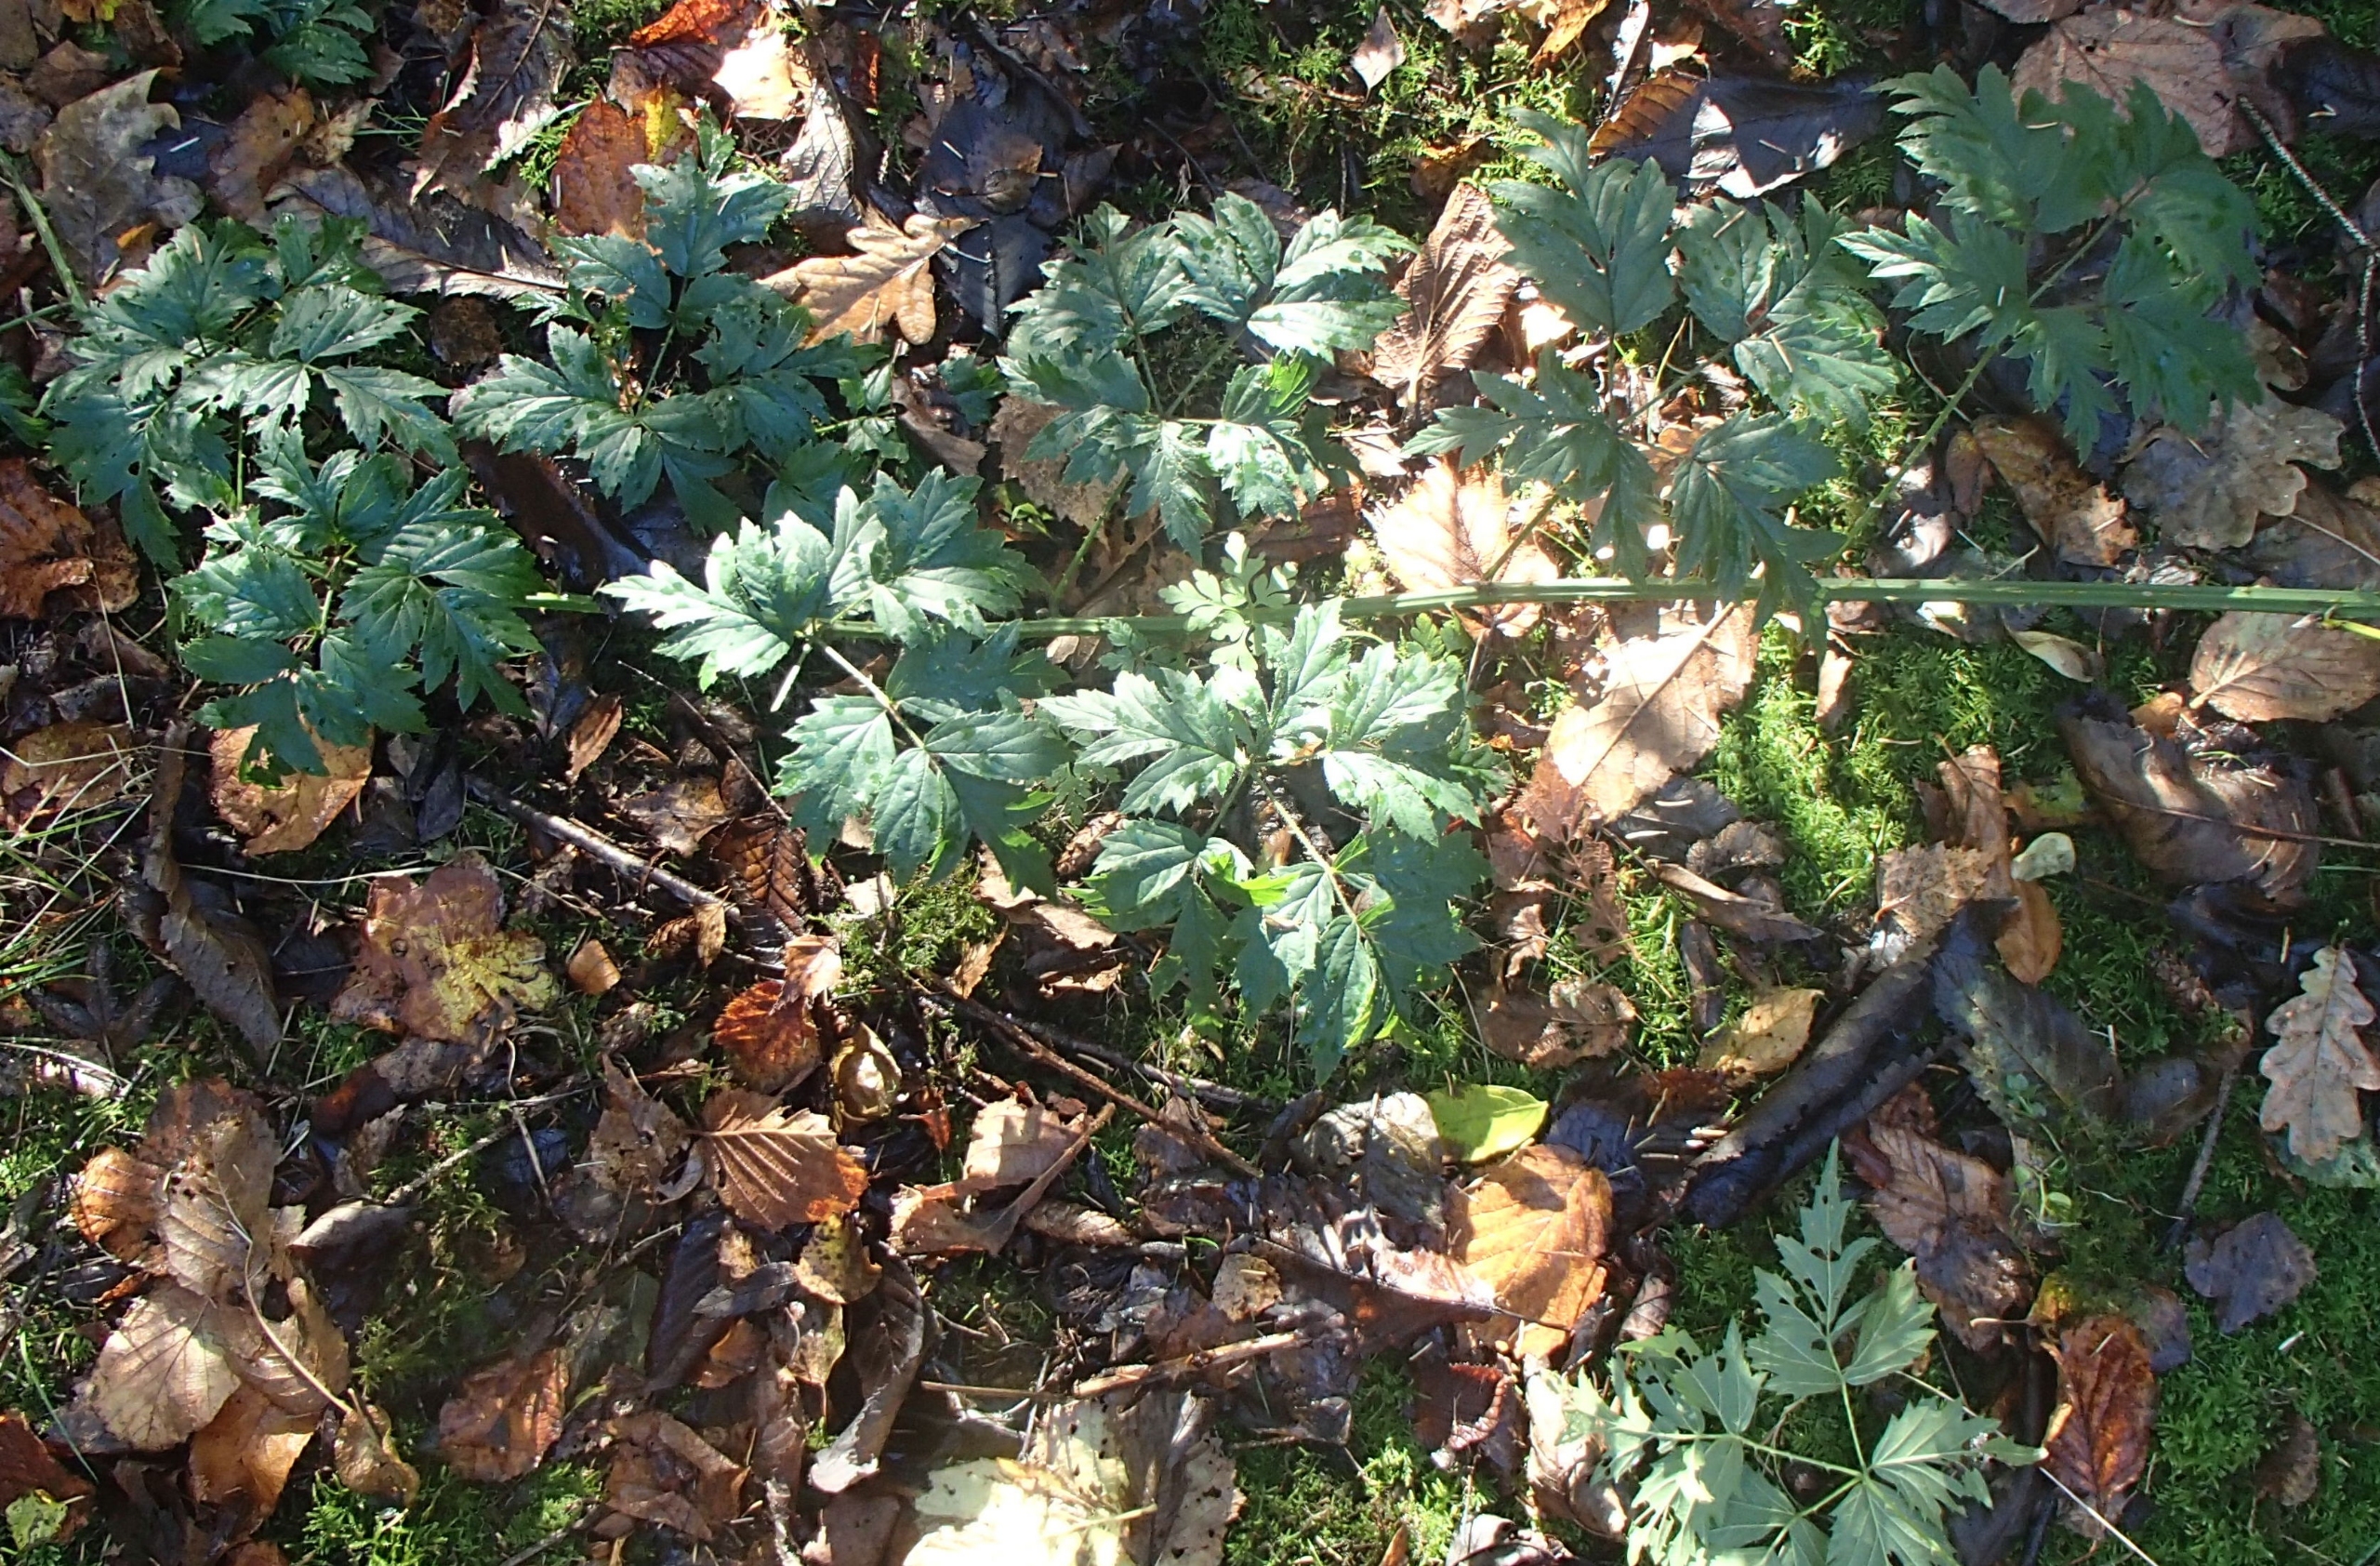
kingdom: Plantae
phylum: Tracheophyta
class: Magnoliopsida
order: Rosales
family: Rosaceae
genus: Rubus
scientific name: Rubus laciniatus
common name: Fliget brombær
